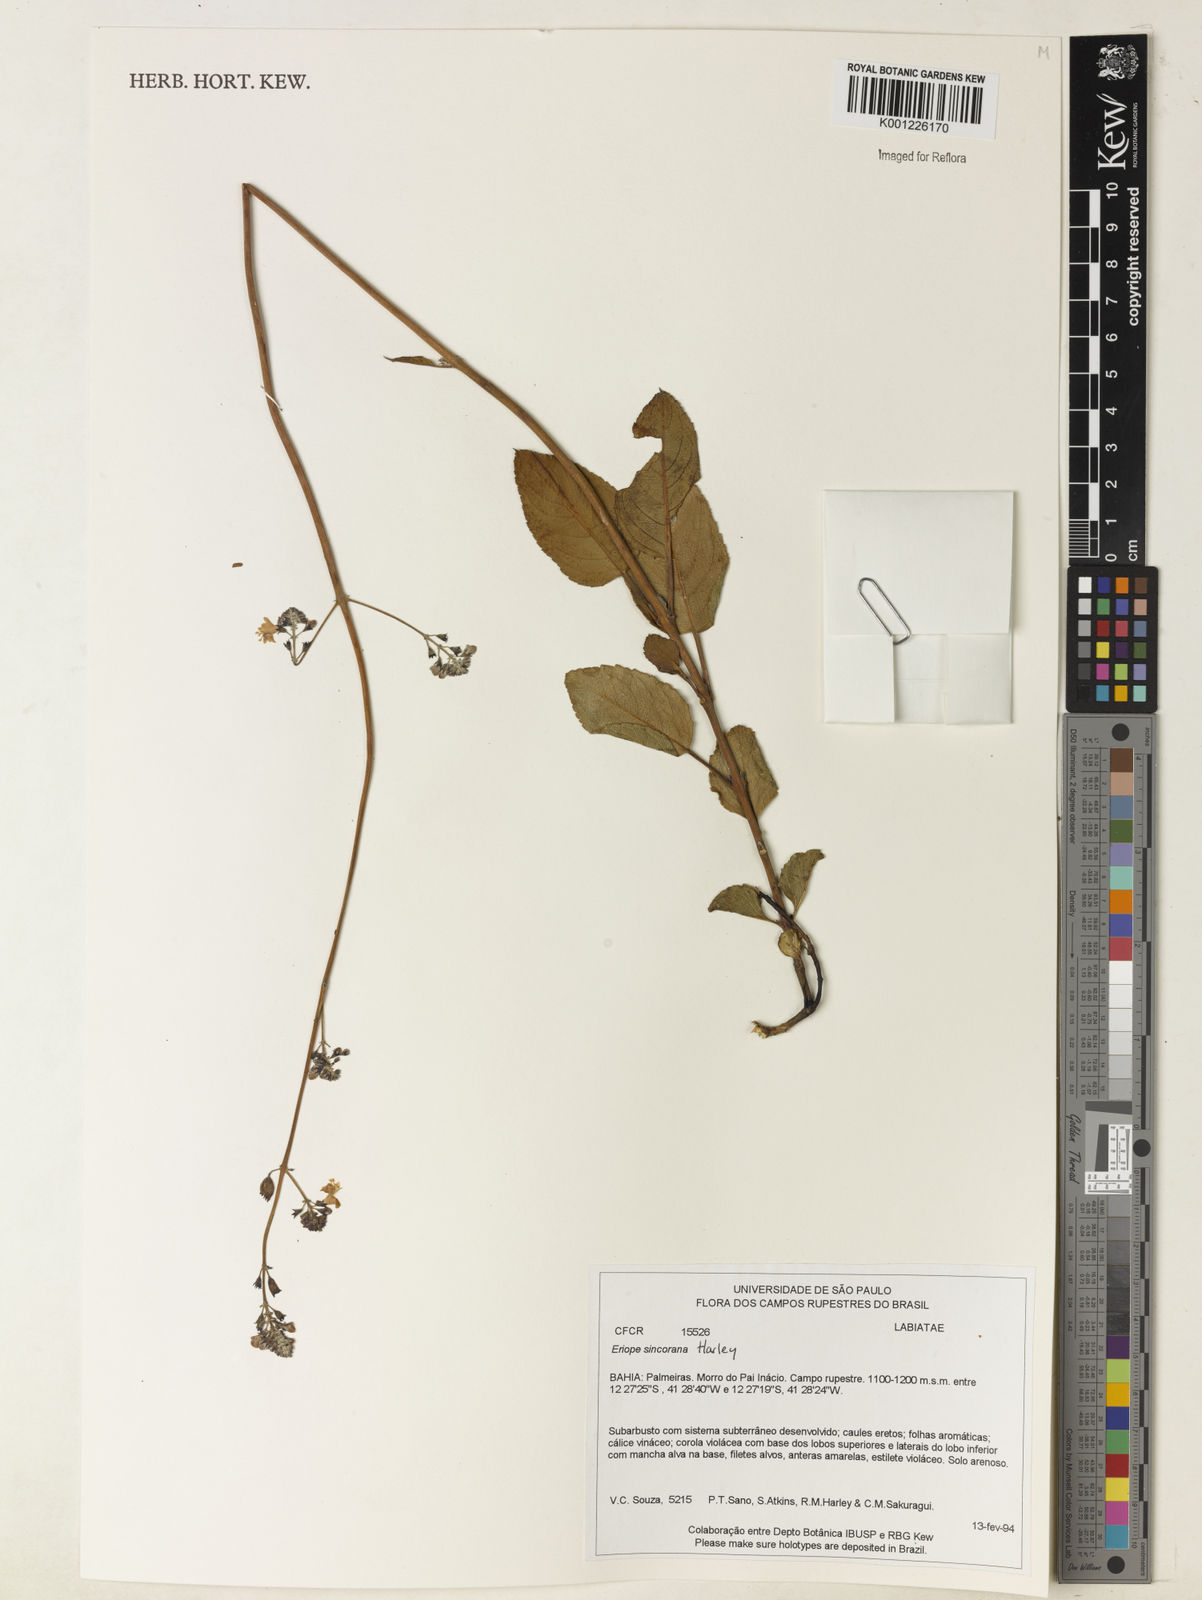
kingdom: Plantae
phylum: Tracheophyta
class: Magnoliopsida
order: Lamiales
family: Lamiaceae
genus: Eriope
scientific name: Eriope sincorana
